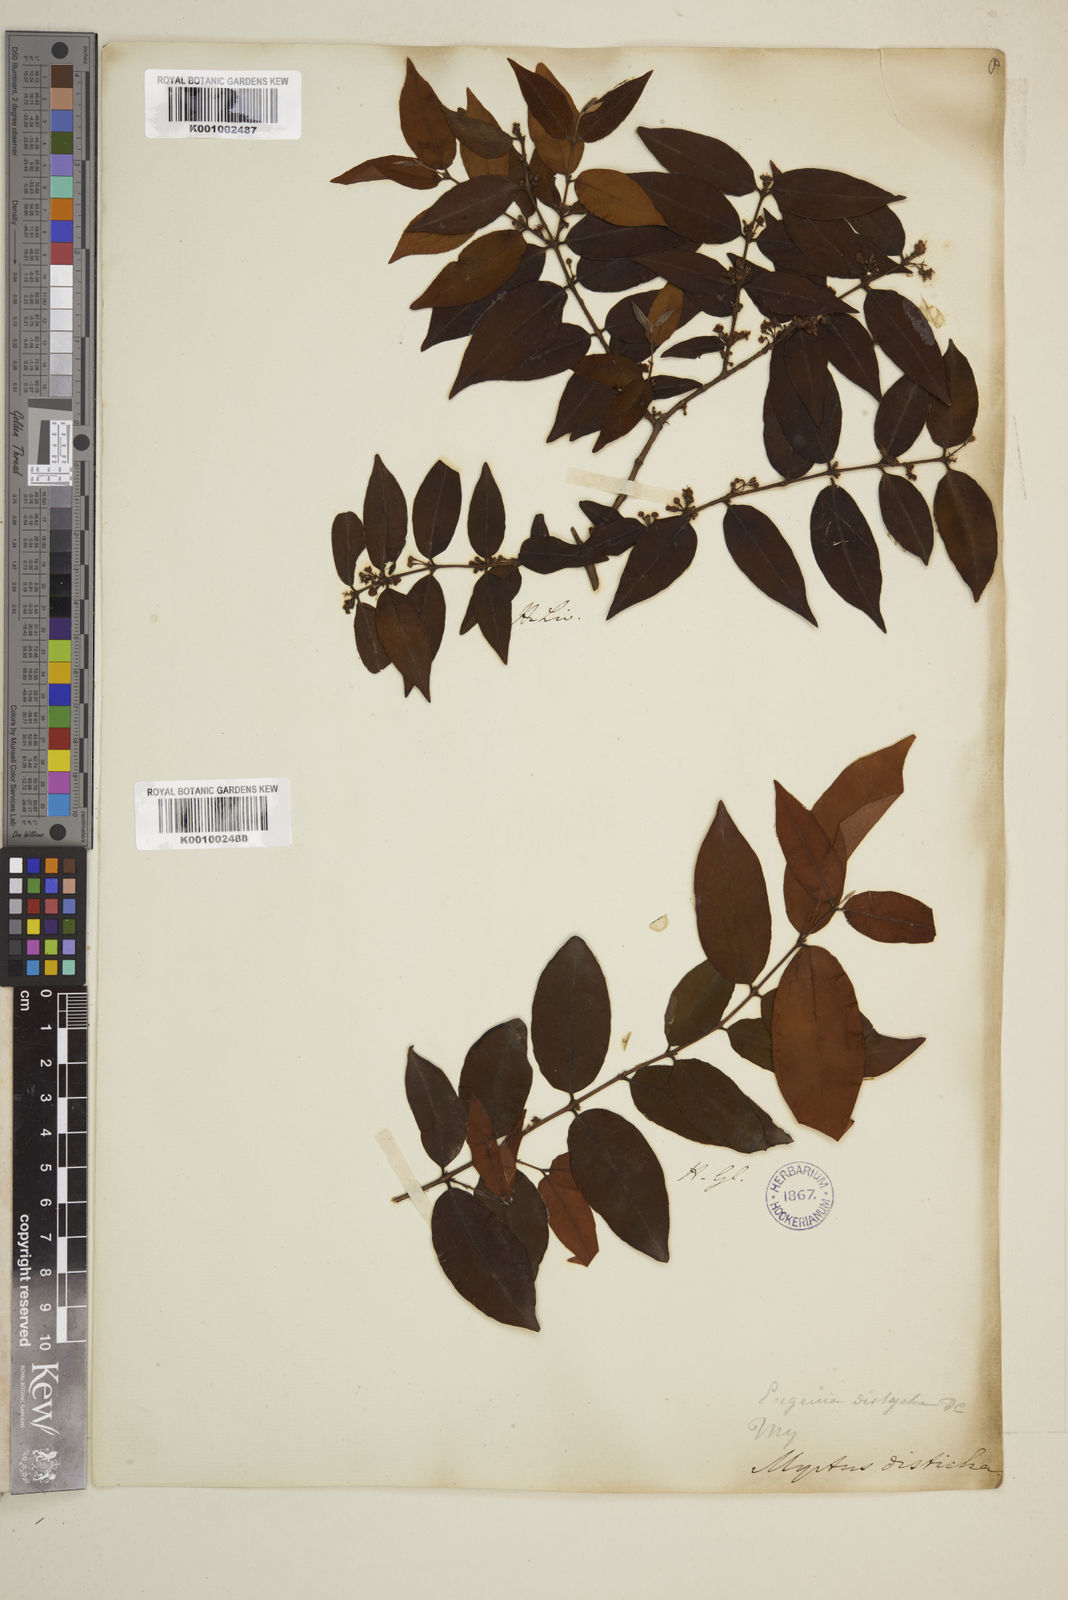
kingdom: Plantae
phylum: Tracheophyta
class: Magnoliopsida
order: Myrtales
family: Myrtaceae
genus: Eugenia
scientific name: Eugenia disticha
